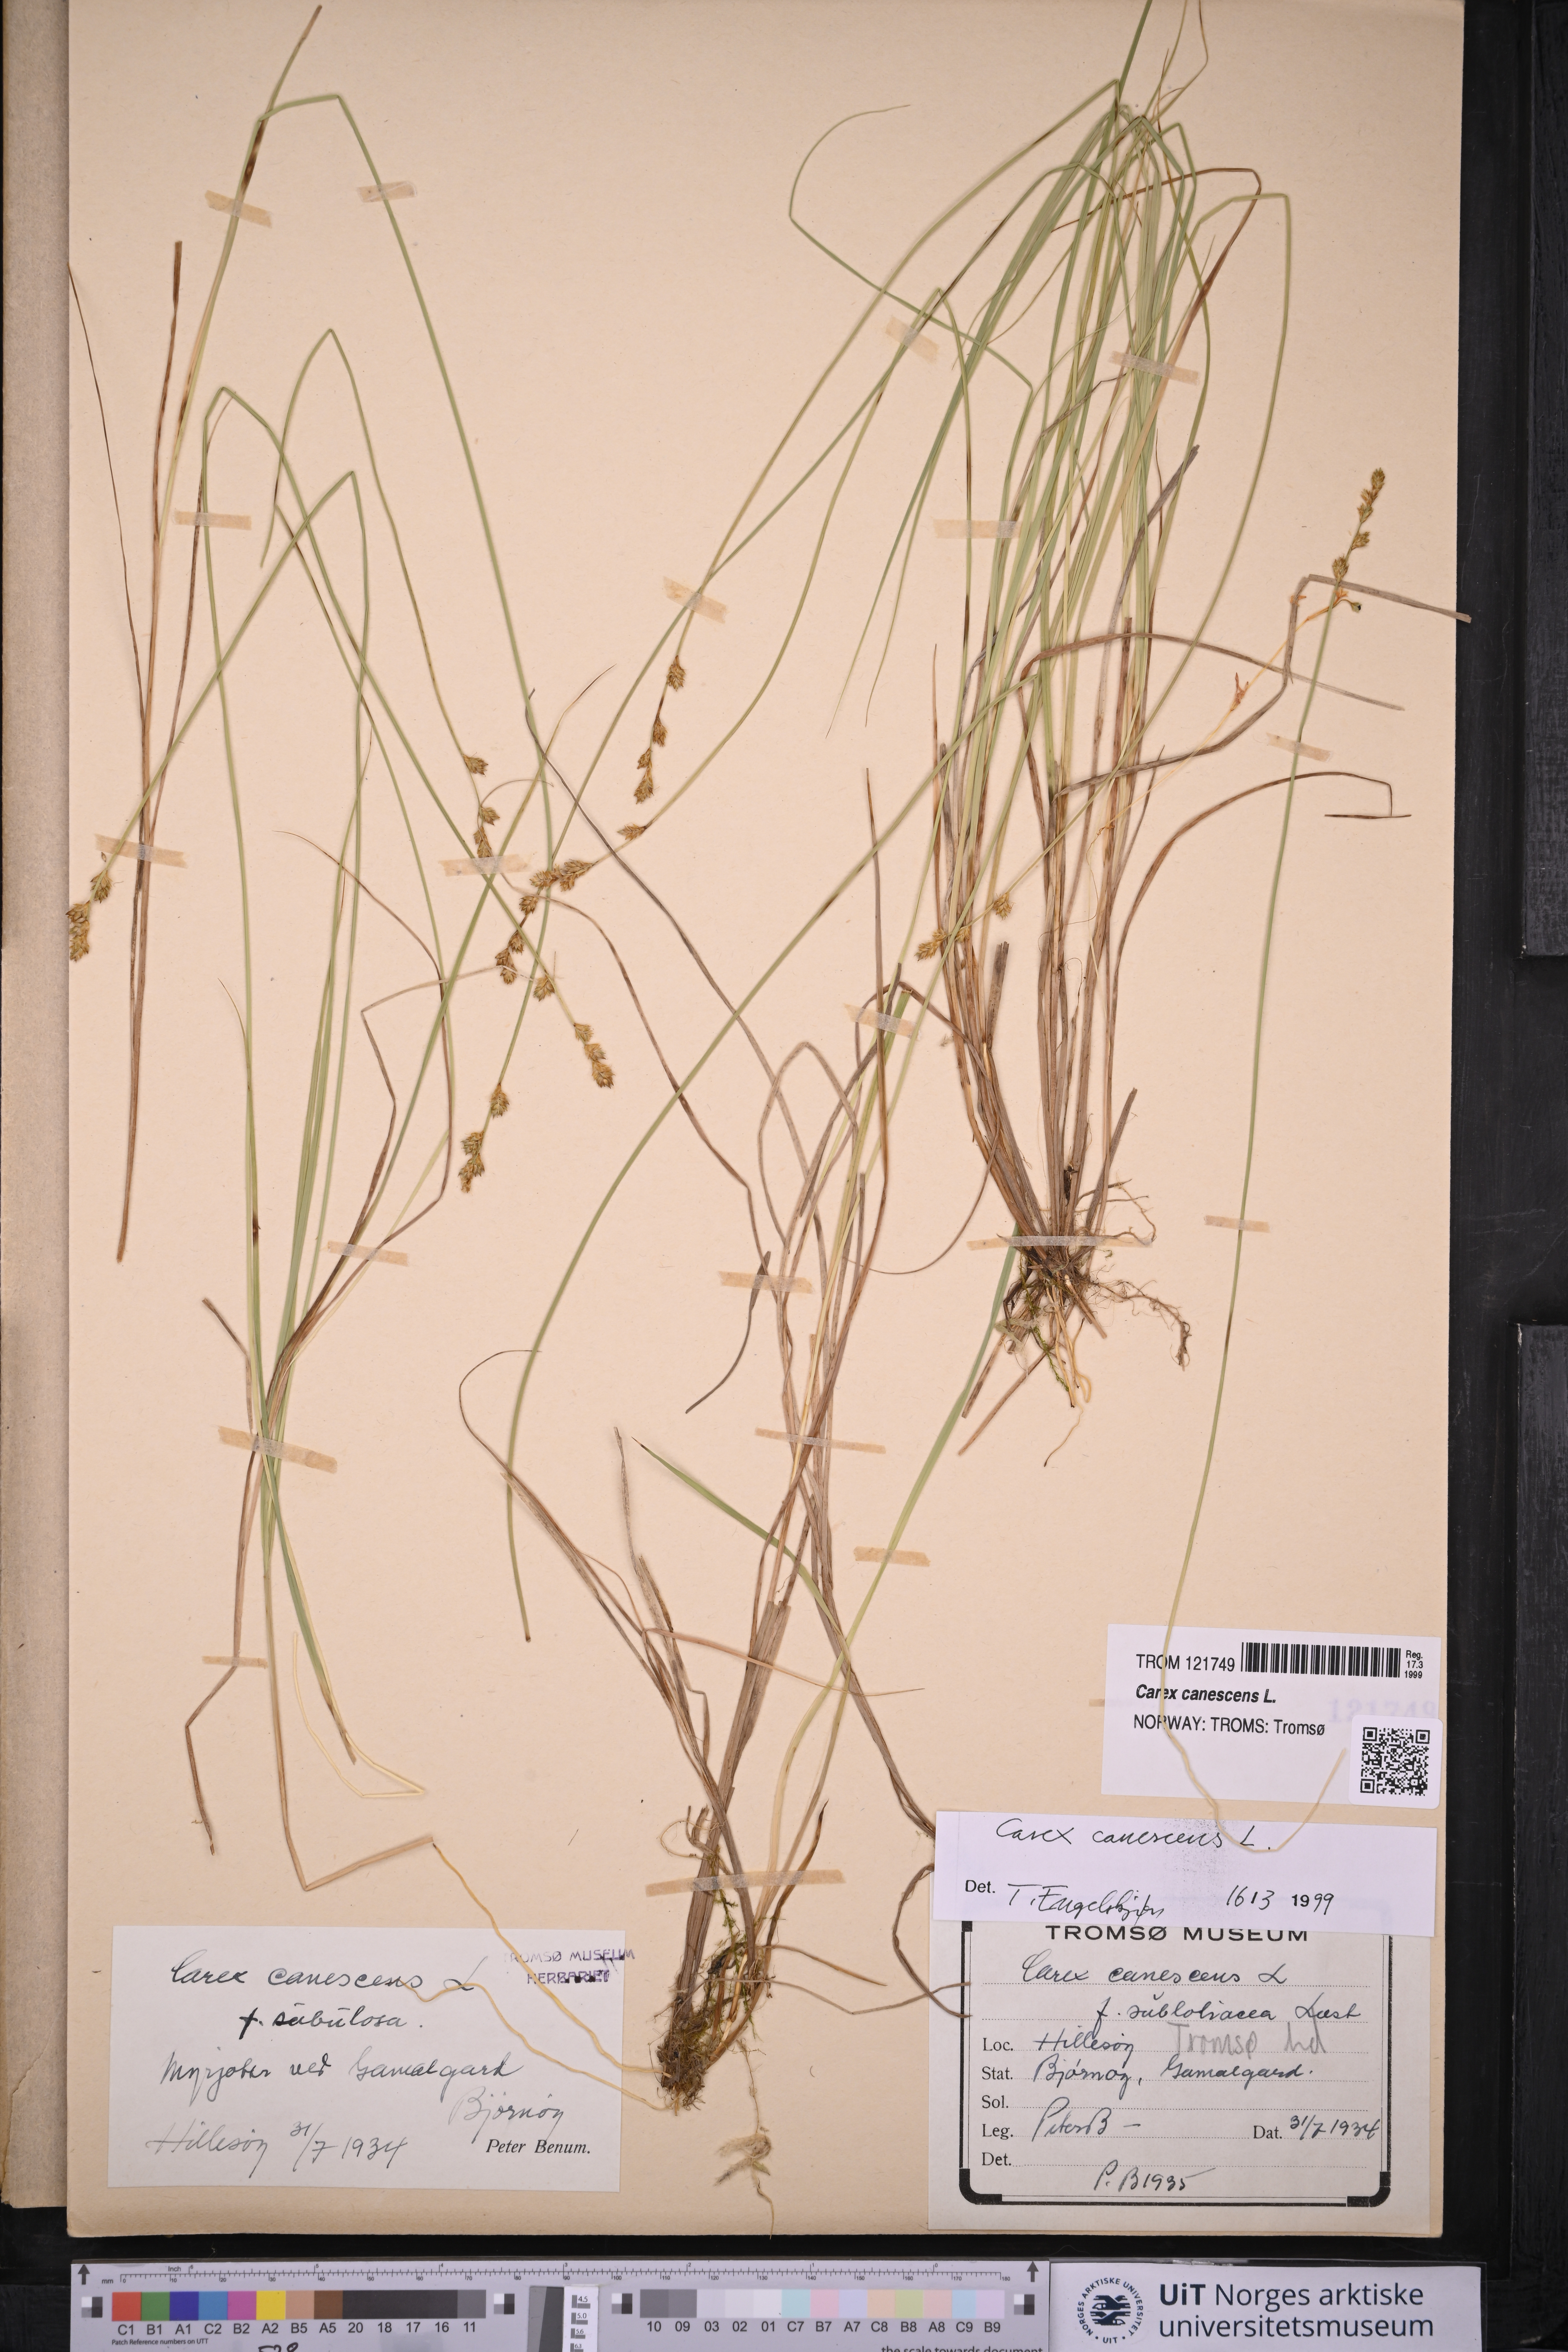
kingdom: Plantae
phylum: Tracheophyta
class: Liliopsida
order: Poales
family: Cyperaceae
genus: Carex
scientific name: Carex canescens
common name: White sedge
